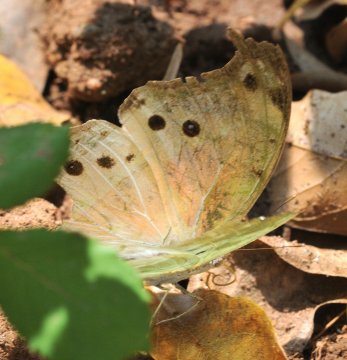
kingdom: Animalia
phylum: Arthropoda
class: Insecta
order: Lepidoptera
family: Nymphalidae
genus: Salamis
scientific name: Salamis Protogoniomorpha parhassus
